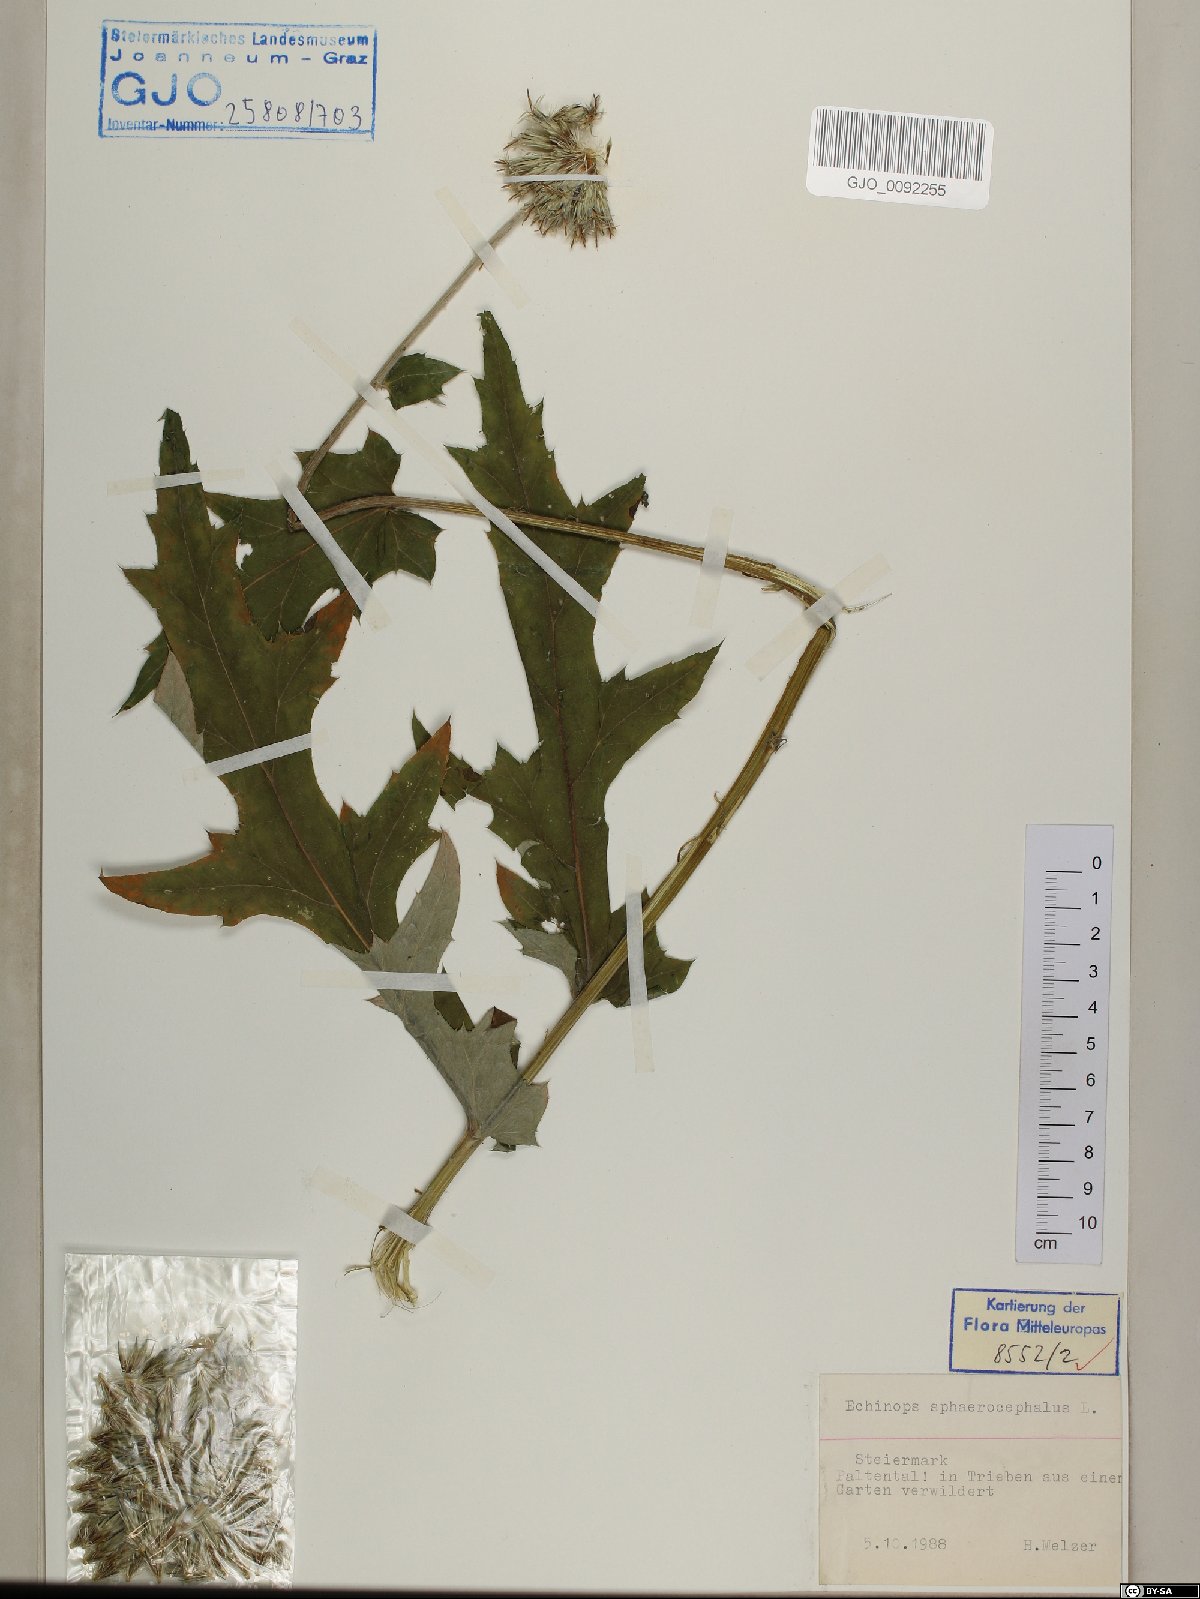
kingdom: Plantae
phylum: Tracheophyta
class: Magnoliopsida
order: Asterales
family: Asteraceae
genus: Echinops
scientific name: Echinops sphaerocephalus
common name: Glandular globe-thistle
